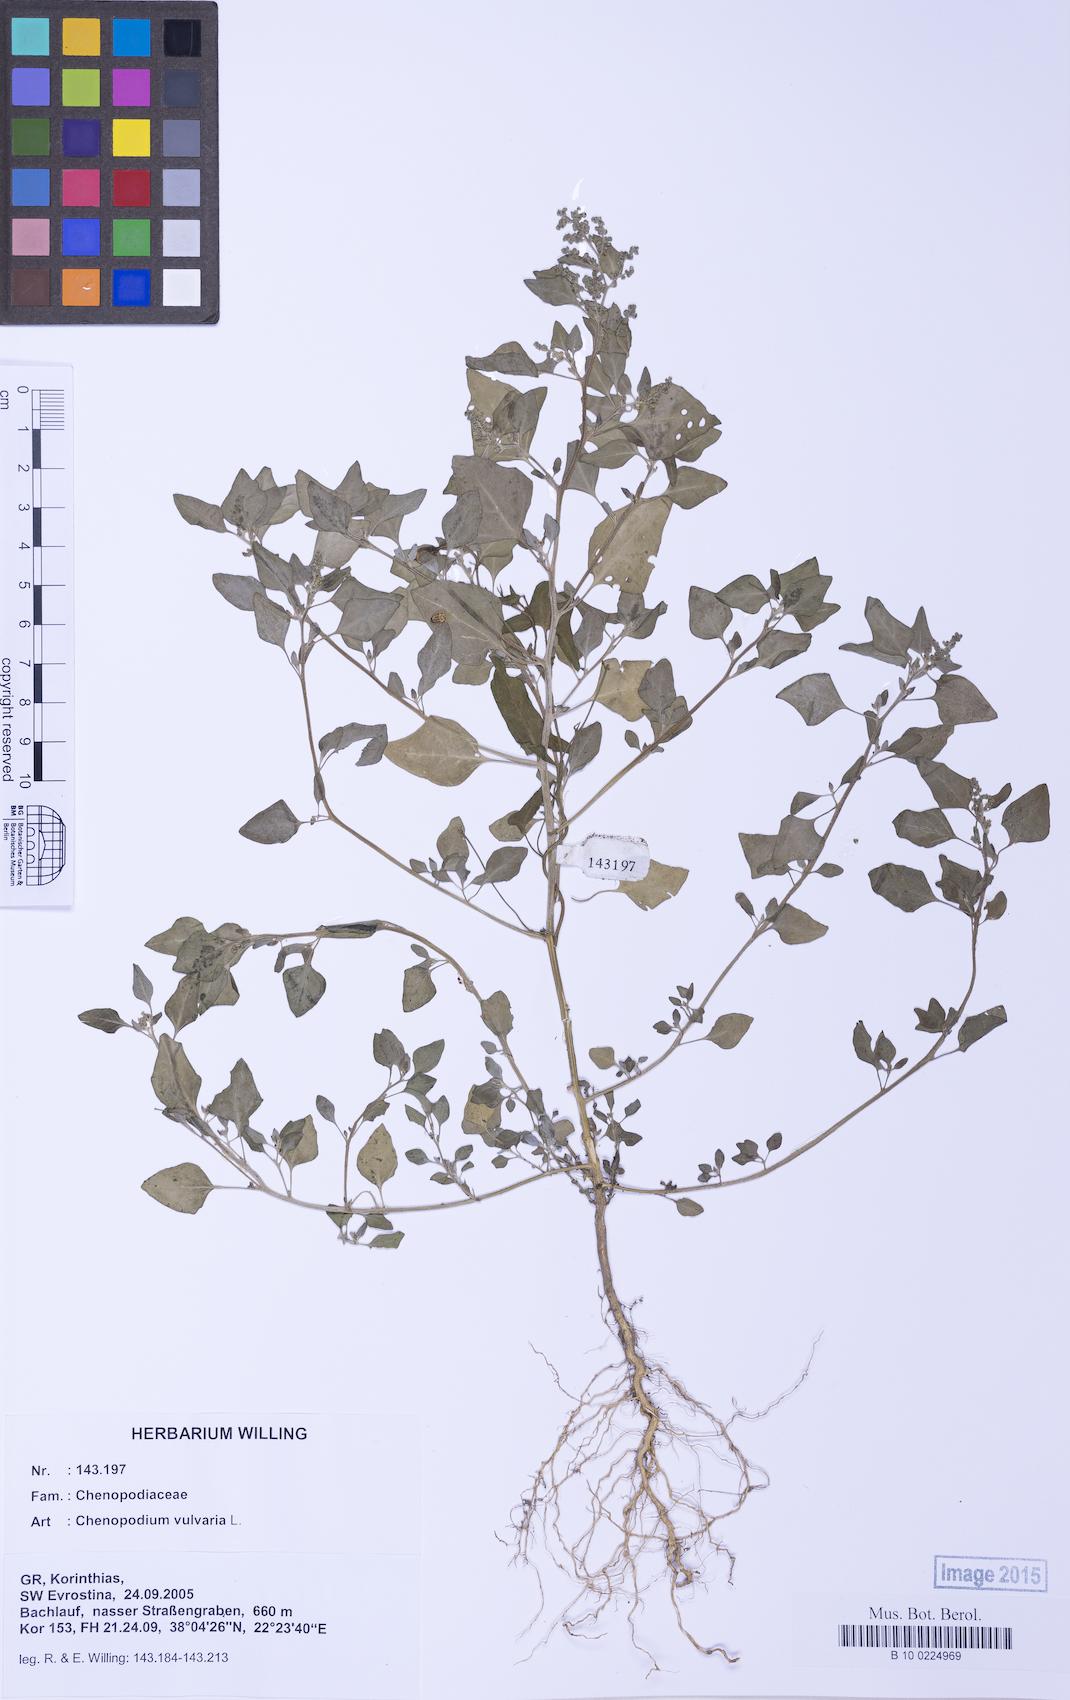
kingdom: Plantae
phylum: Tracheophyta
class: Magnoliopsida
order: Caryophyllales
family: Amaranthaceae
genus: Chenopodium
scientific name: Chenopodium vulvaria
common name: Stinking goosefoot
